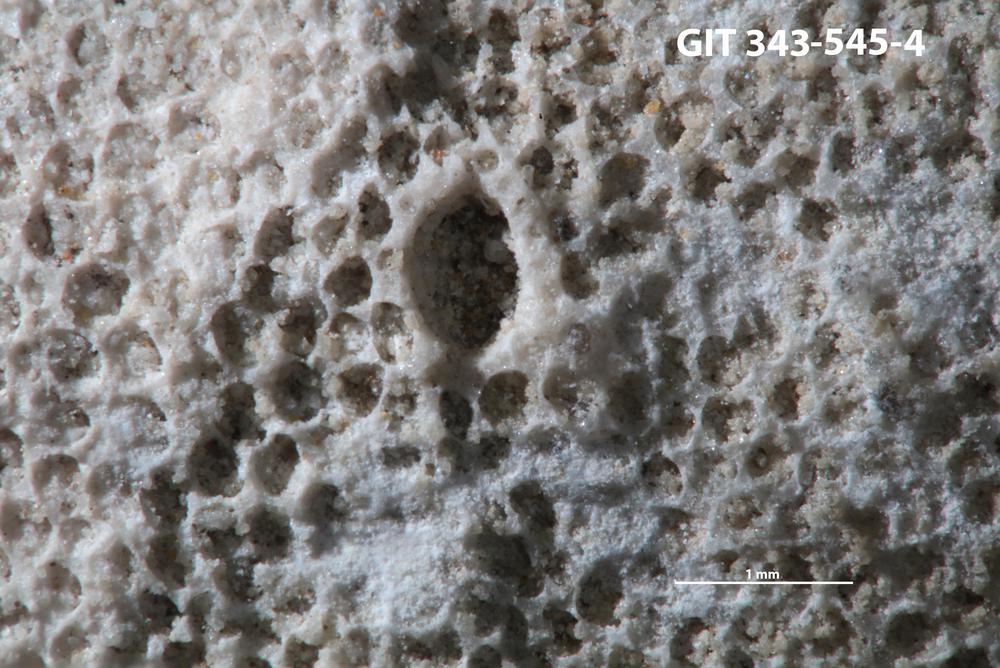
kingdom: Animalia
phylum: Annelida
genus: Anoigmaichnus
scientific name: Anoigmaichnus
